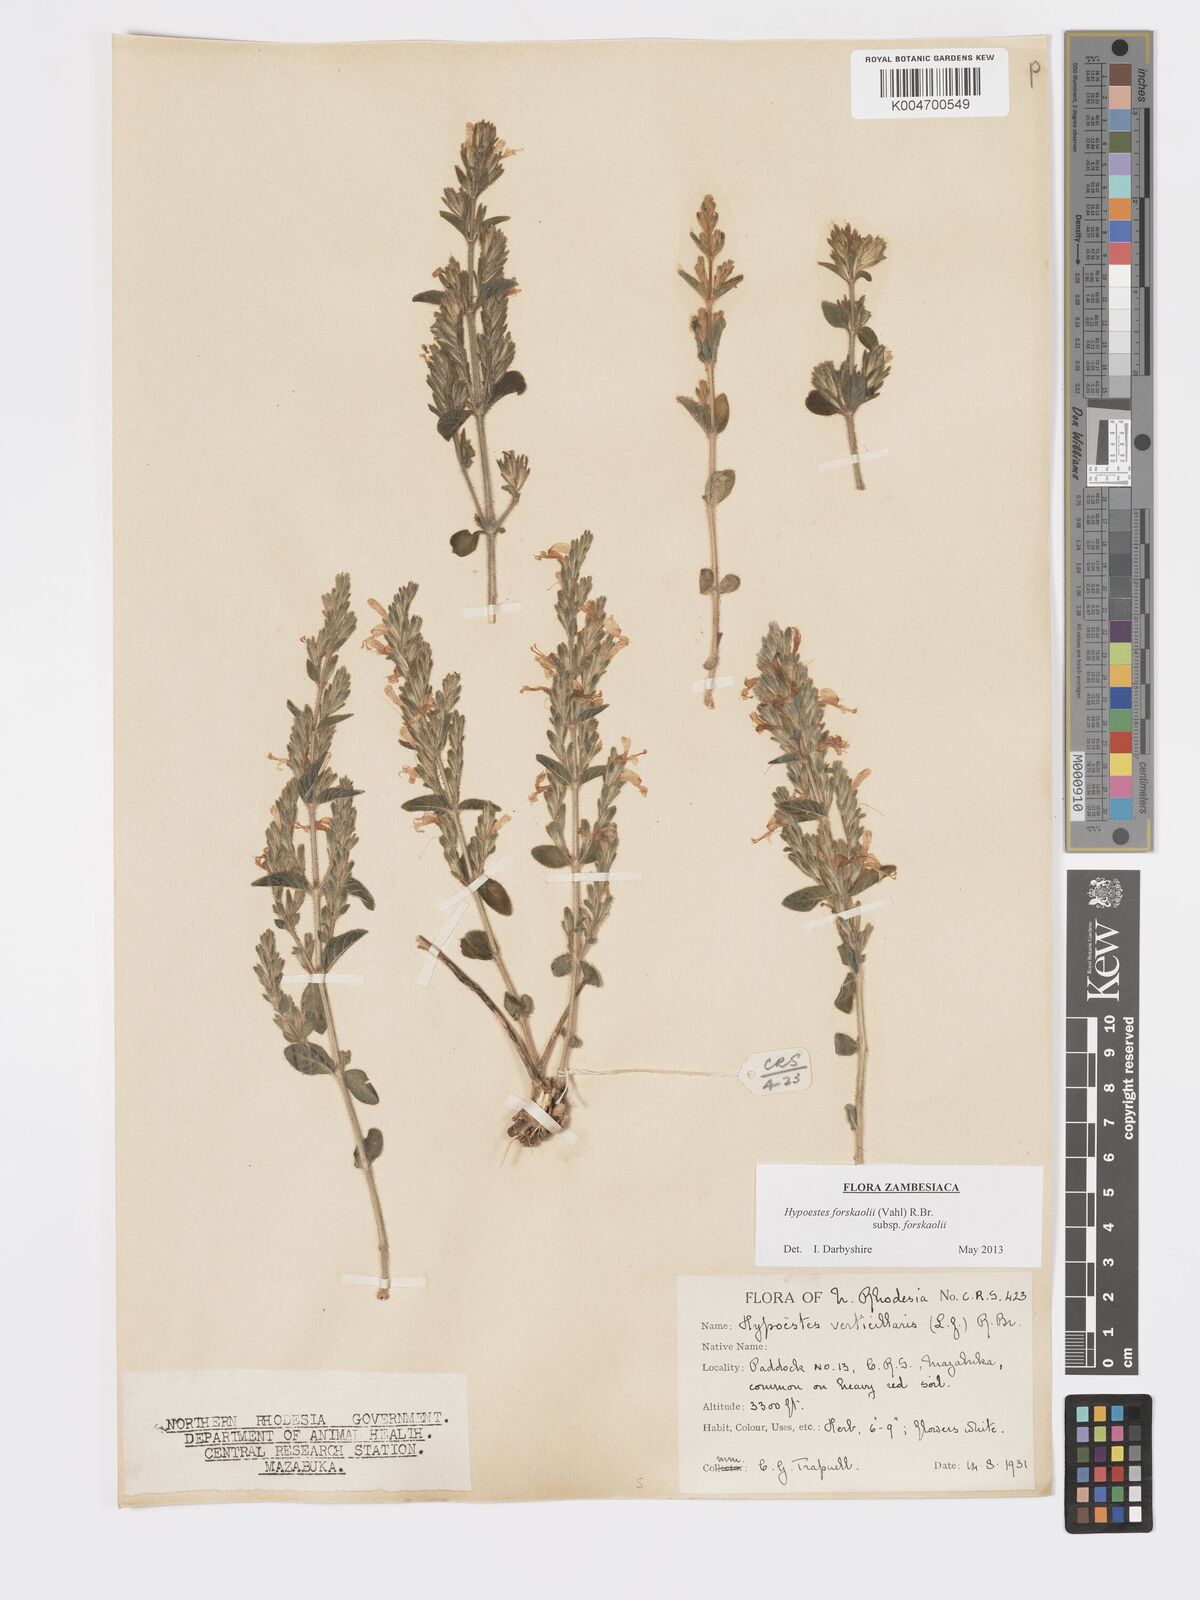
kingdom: Plantae
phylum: Tracheophyta
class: Magnoliopsida
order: Lamiales
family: Acanthaceae
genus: Hypoestes
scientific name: Hypoestes forskaolii
